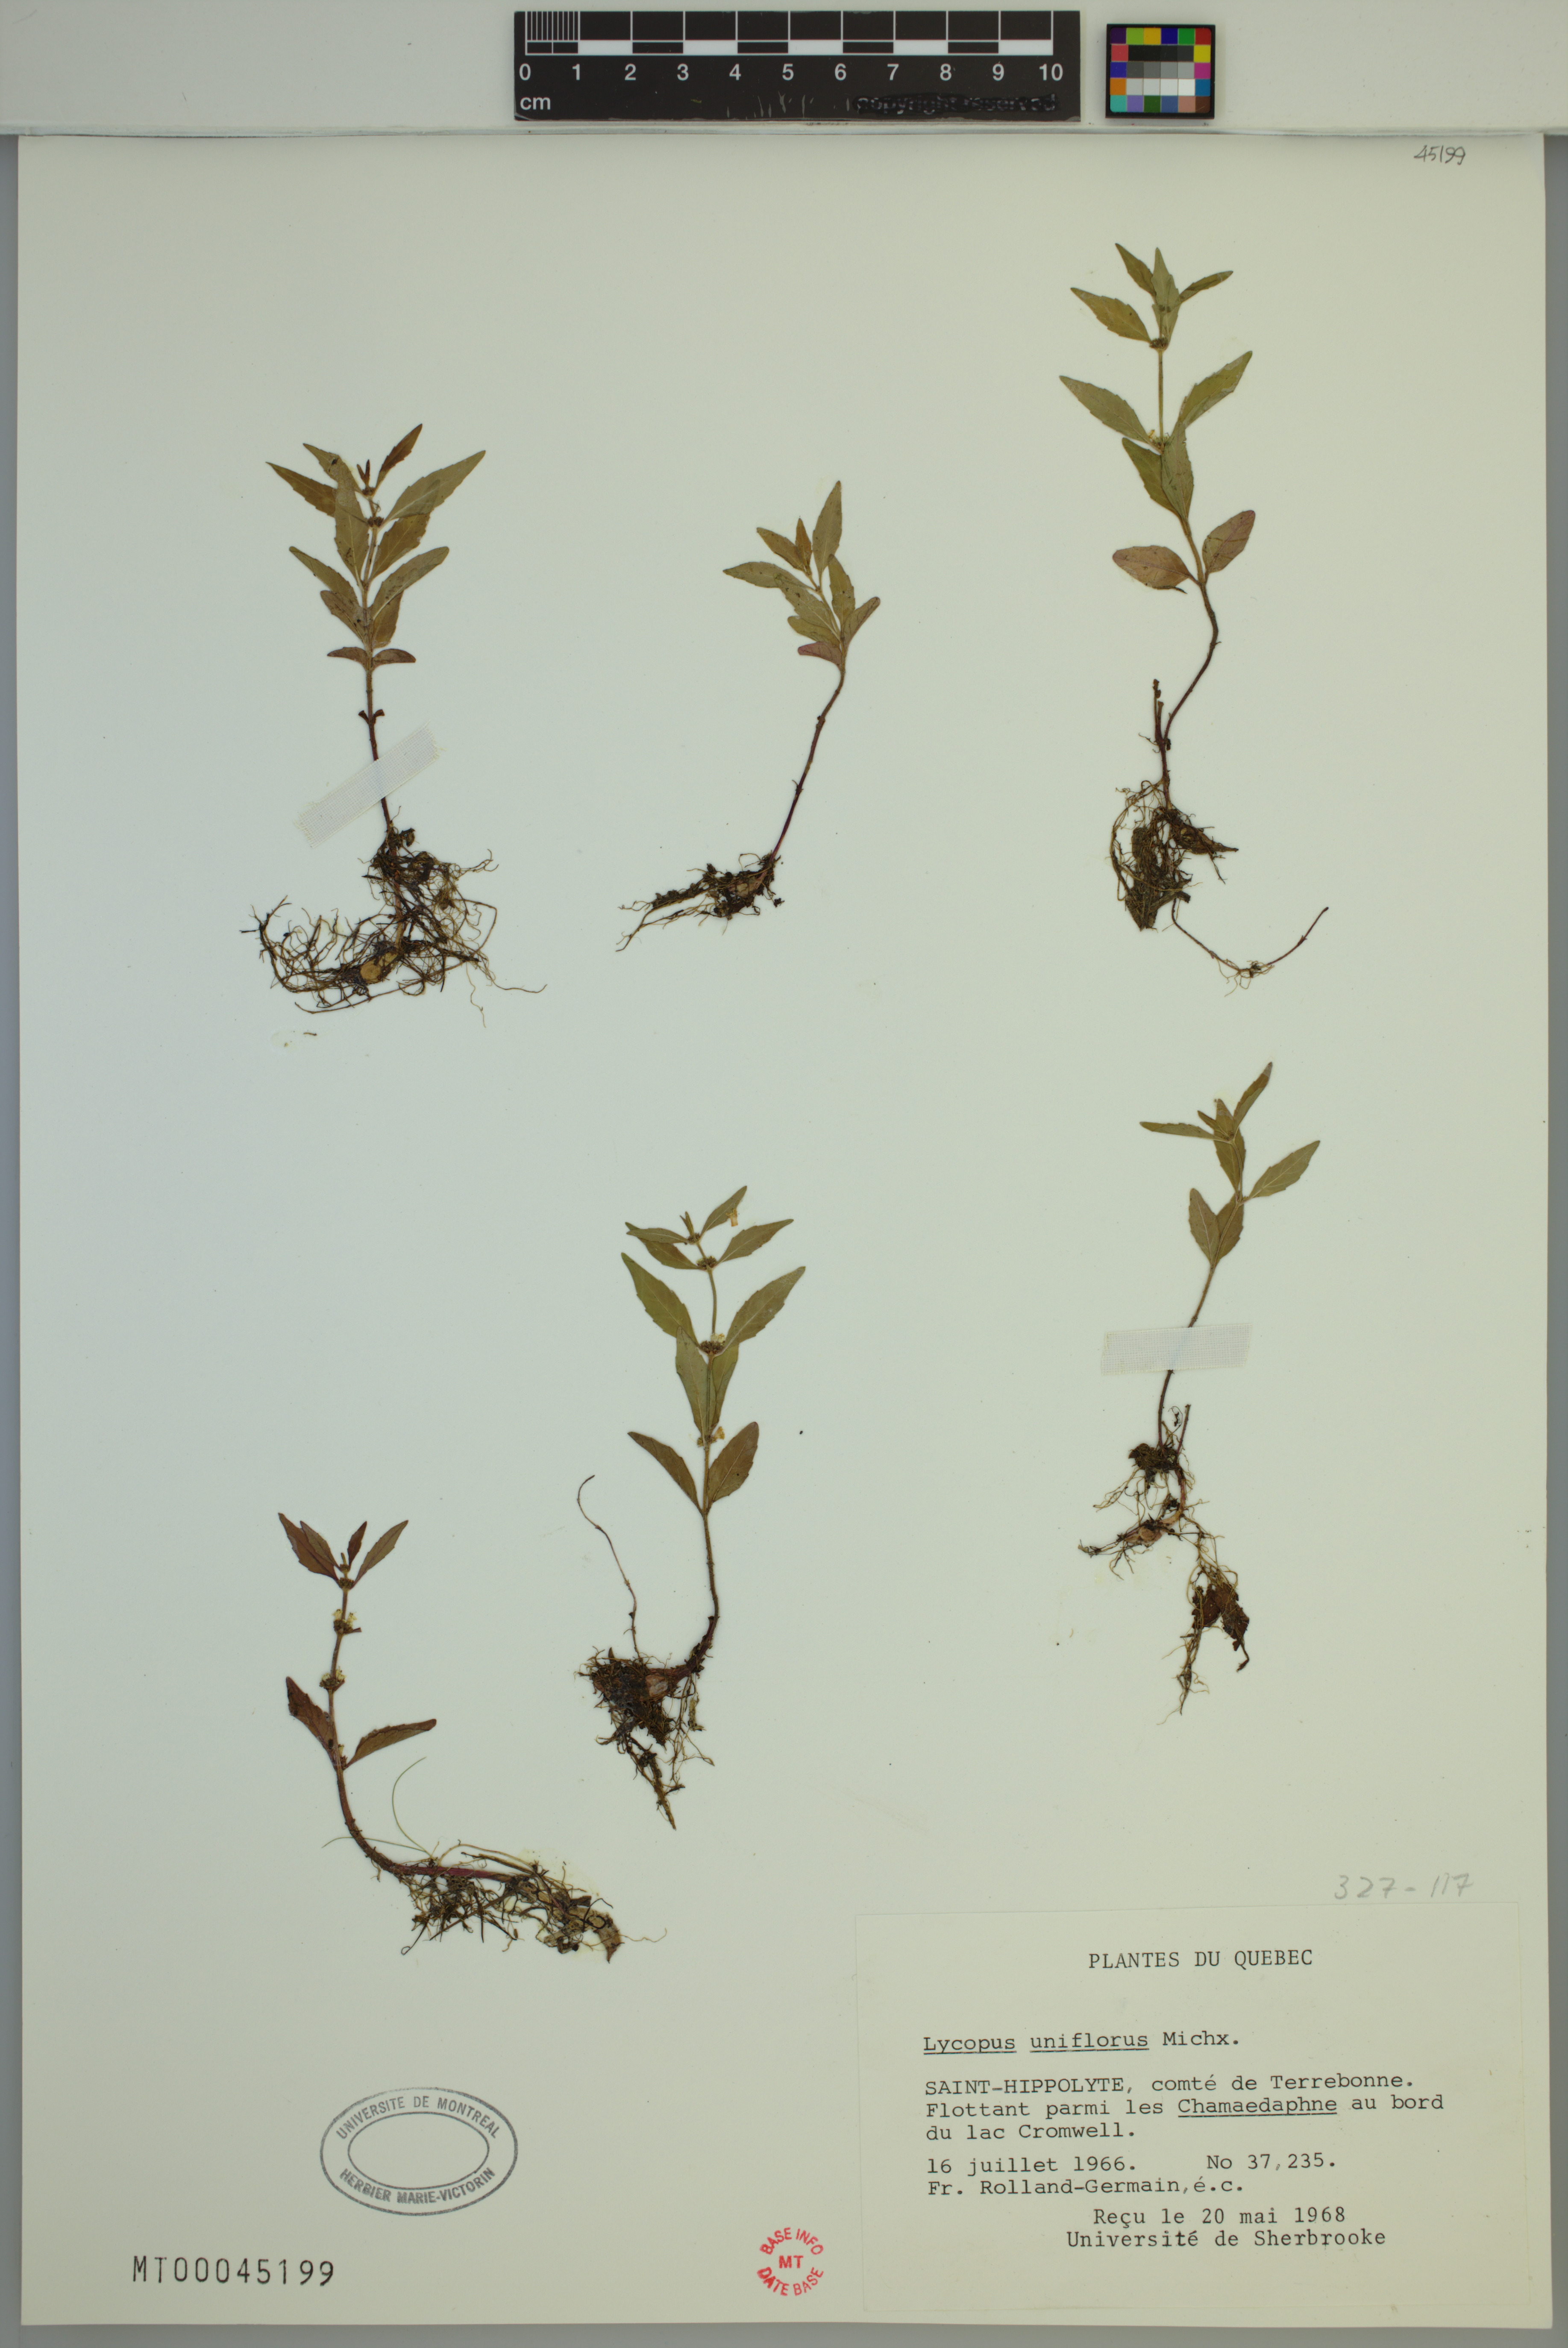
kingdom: Plantae
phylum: Tracheophyta
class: Magnoliopsida
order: Lamiales
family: Lamiaceae
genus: Lycopus
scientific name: Lycopus uniflorus
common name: Northern bugleweed
